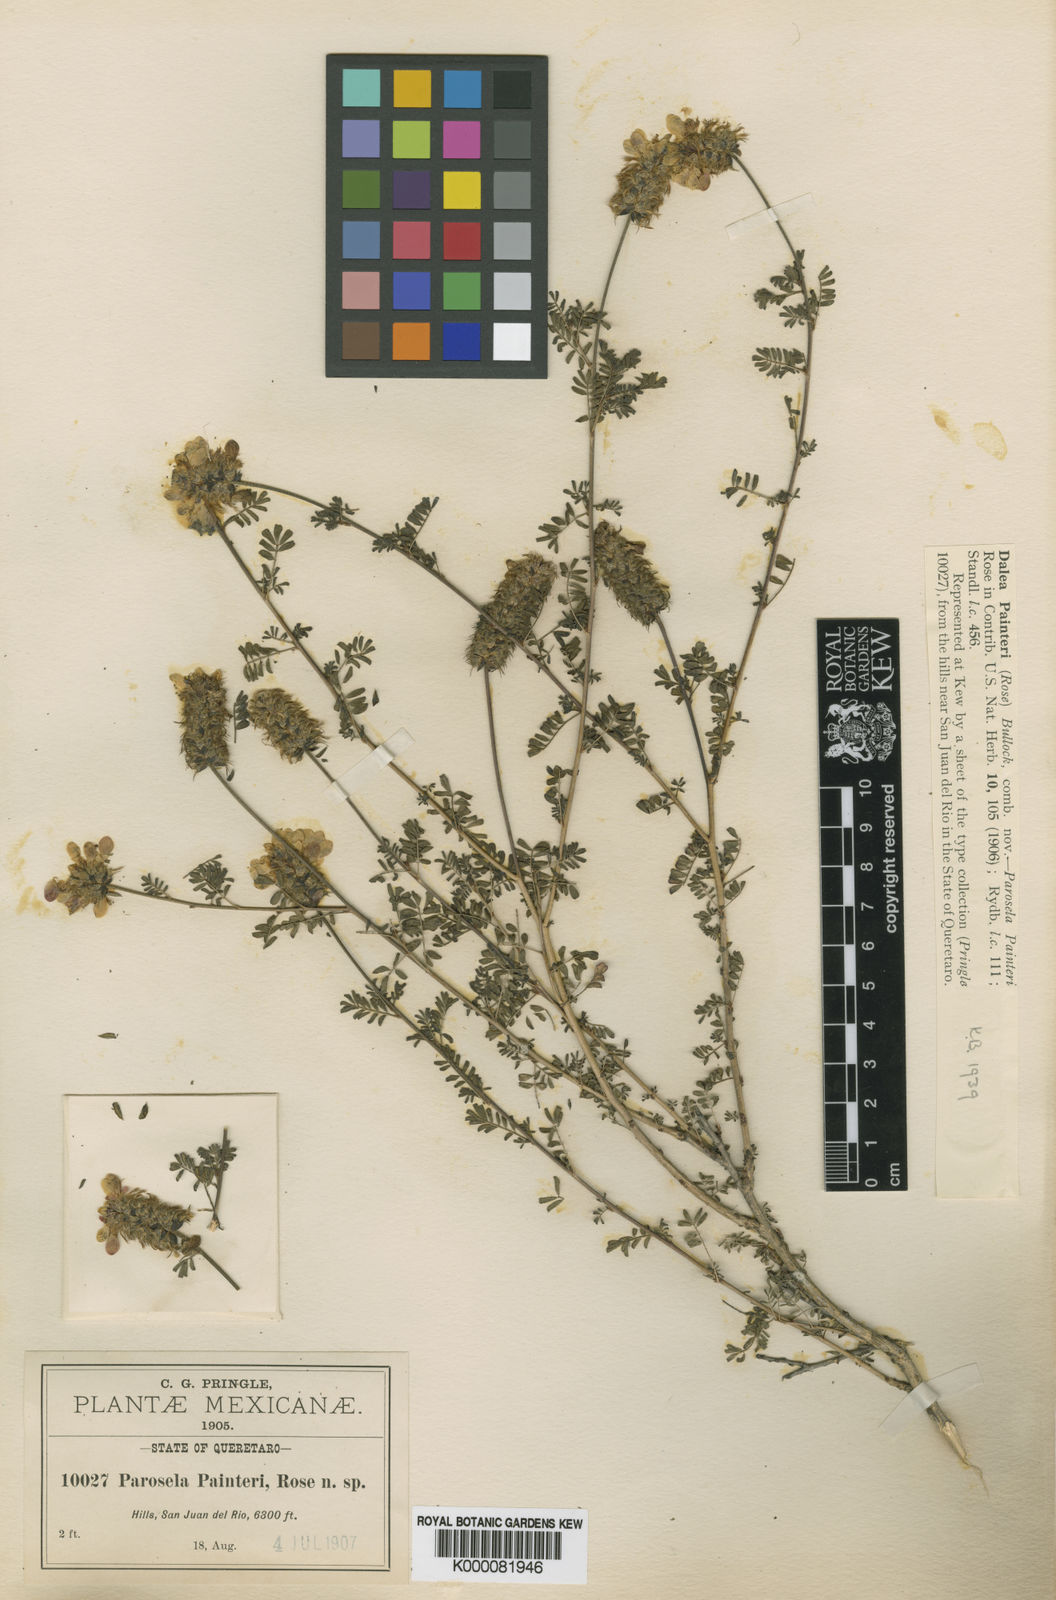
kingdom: Plantae
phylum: Tracheophyta
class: Magnoliopsida
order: Fabales
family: Fabaceae
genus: Dalea
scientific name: Dalea lutea
